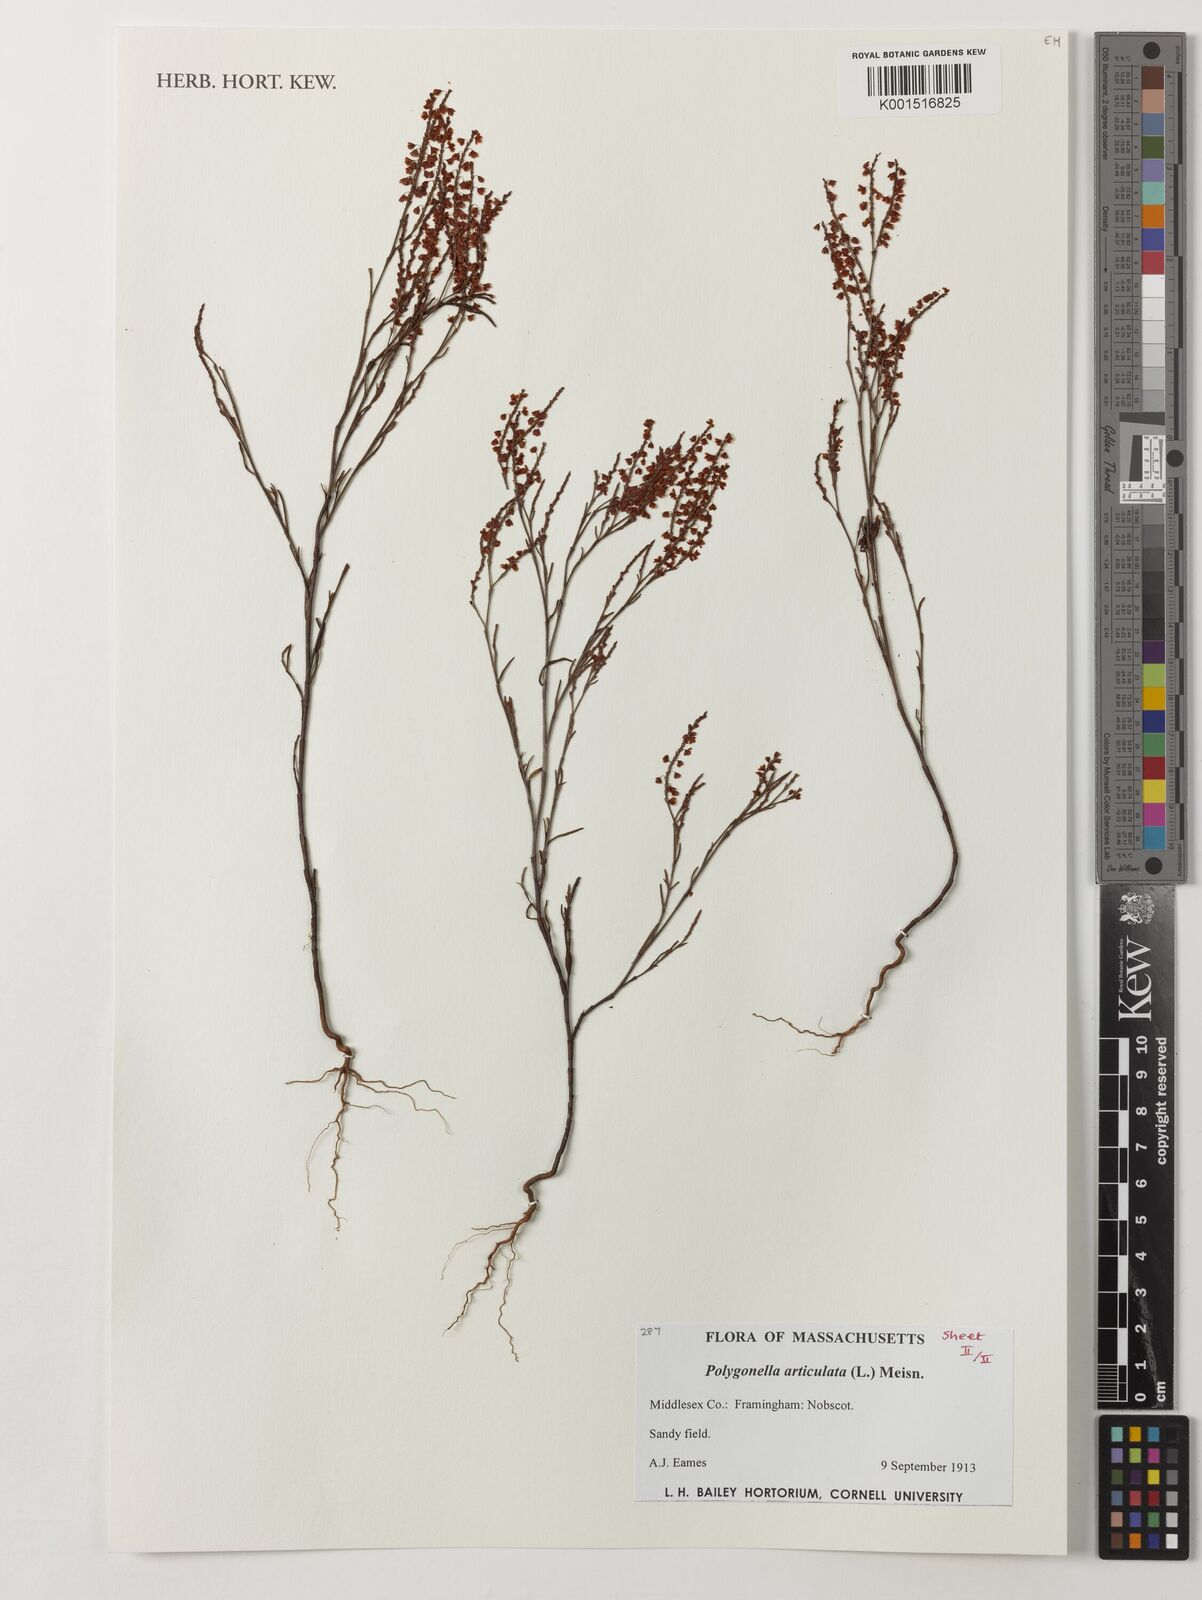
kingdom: Plantae
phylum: Tracheophyta
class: Magnoliopsida
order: Caryophyllales
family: Polygonaceae
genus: Polygonella
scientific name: Polygonella articulata
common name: Coastal jointweed
